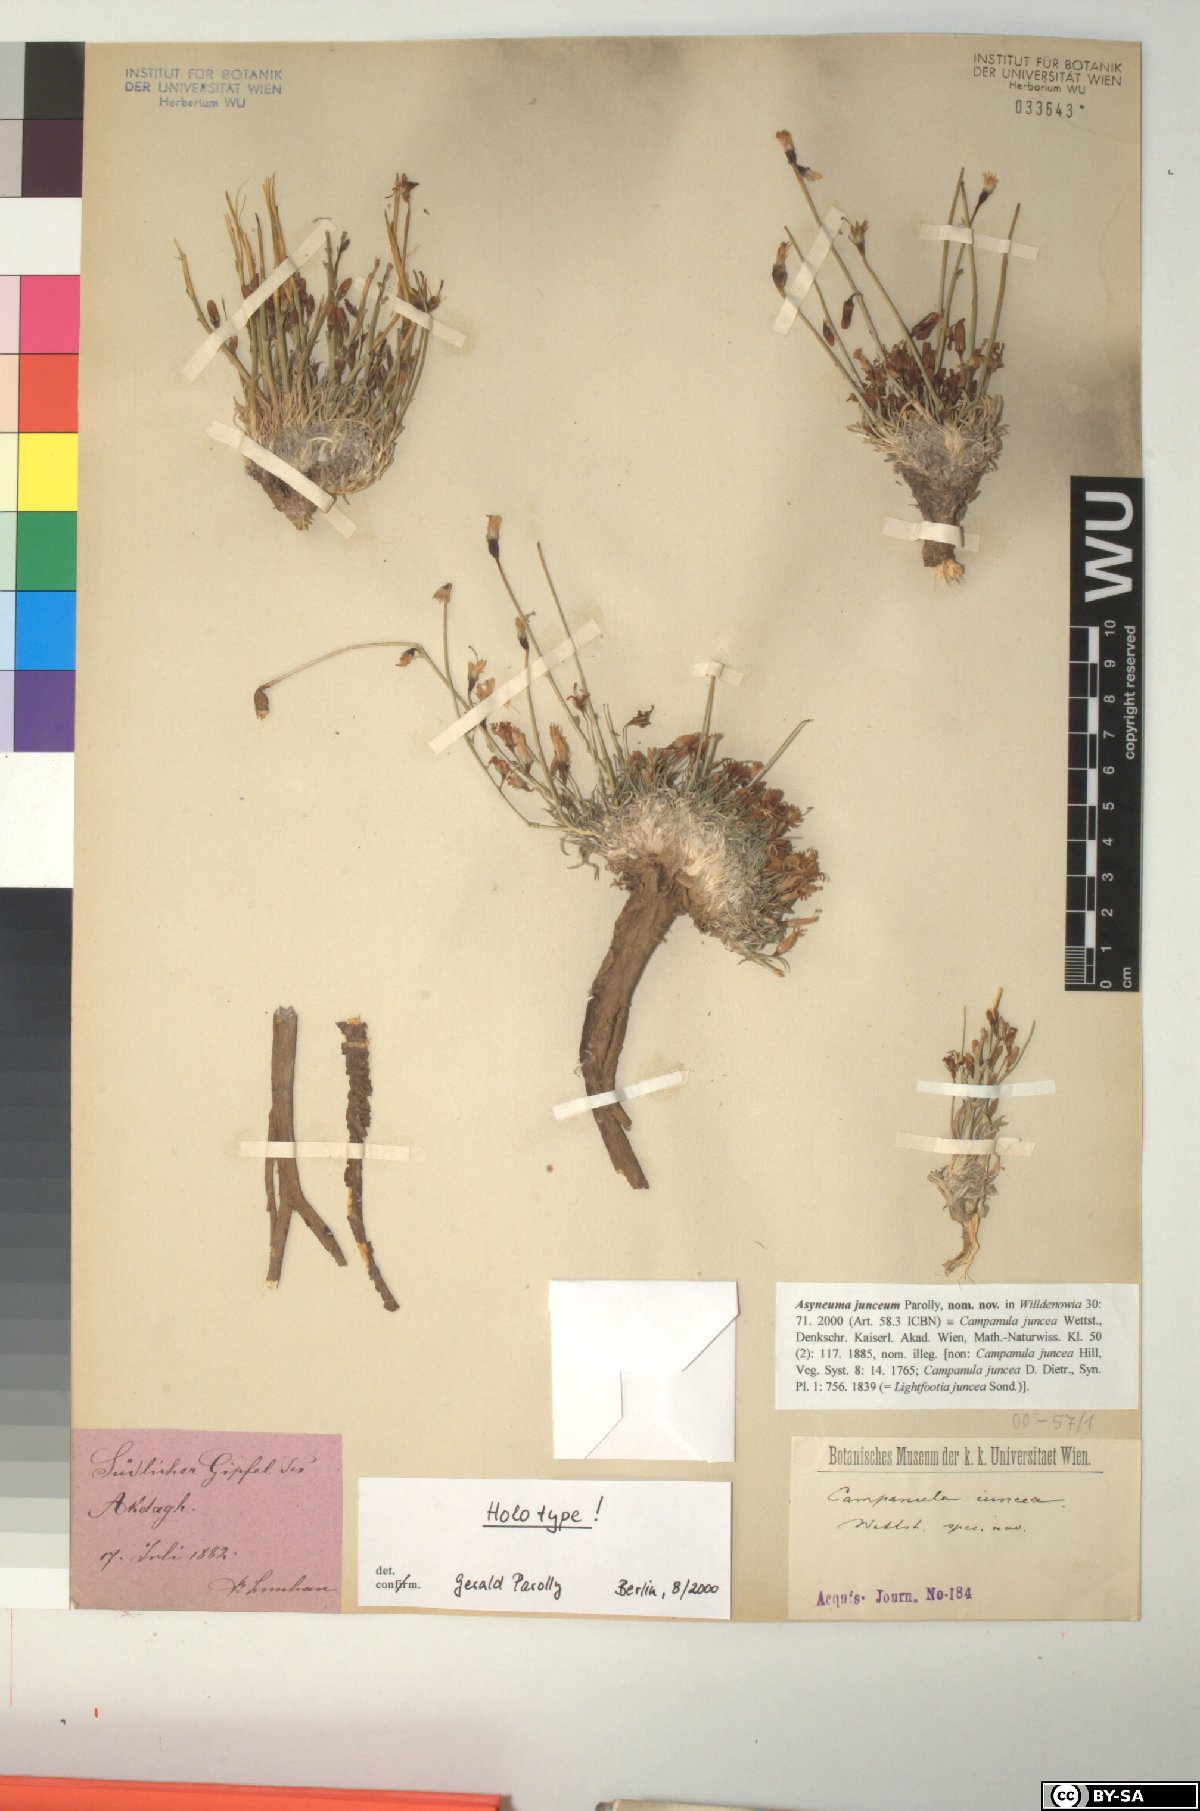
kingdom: Plantae
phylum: Tracheophyta
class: Magnoliopsida
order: Asterales
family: Campanulaceae
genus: Campanula
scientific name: Campanula
